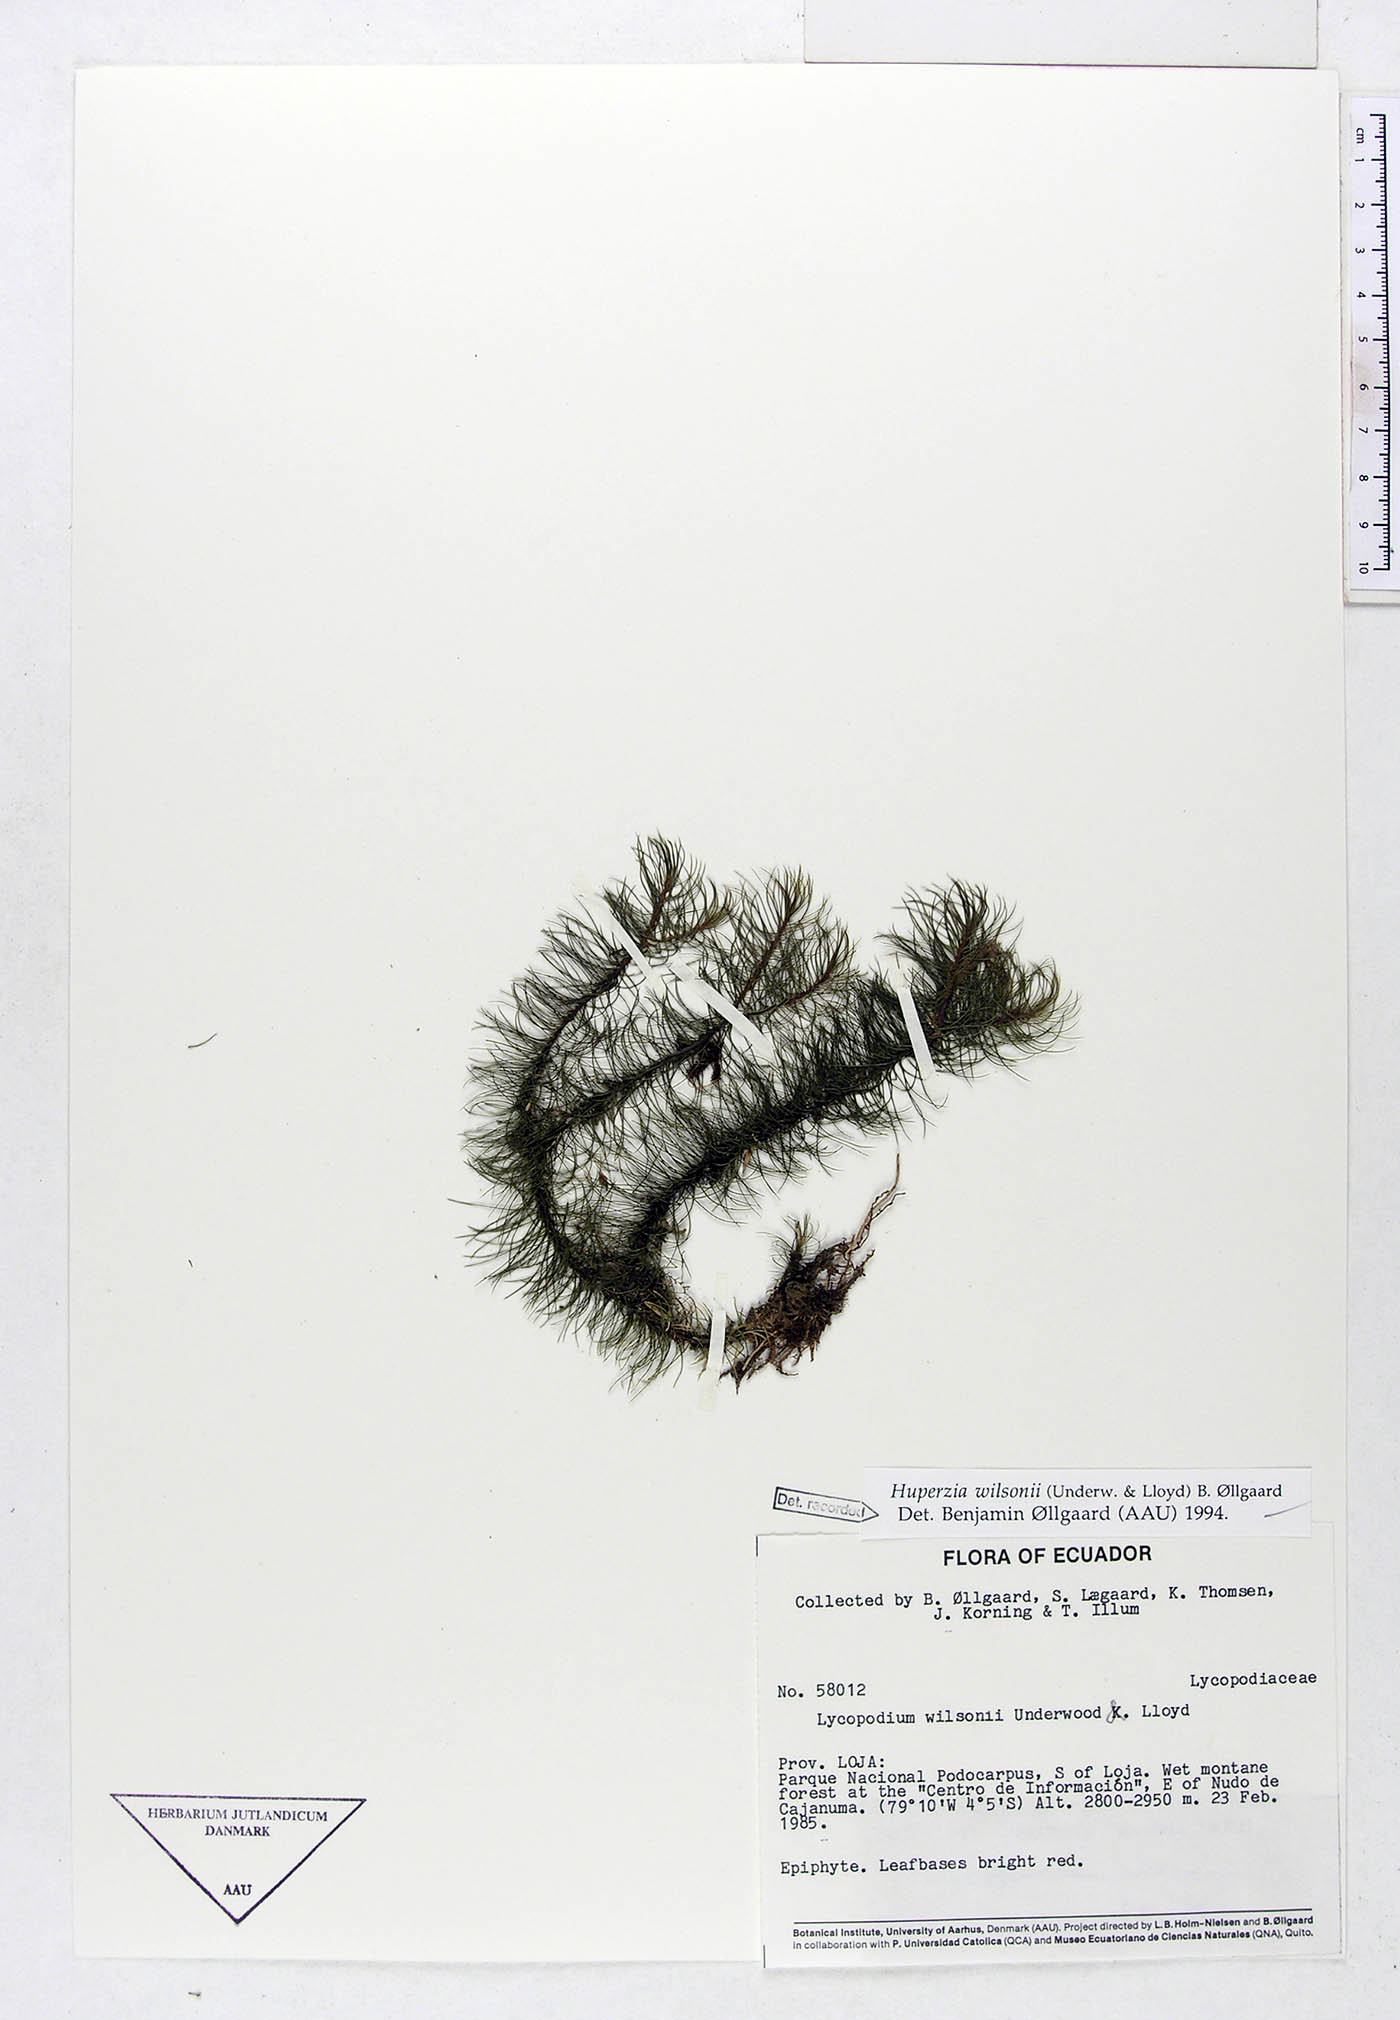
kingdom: Plantae
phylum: Tracheophyta
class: Lycopodiopsida
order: Lycopodiales
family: Lycopodiaceae
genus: Phlegmariurus
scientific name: Phlegmariurus wilsonii
